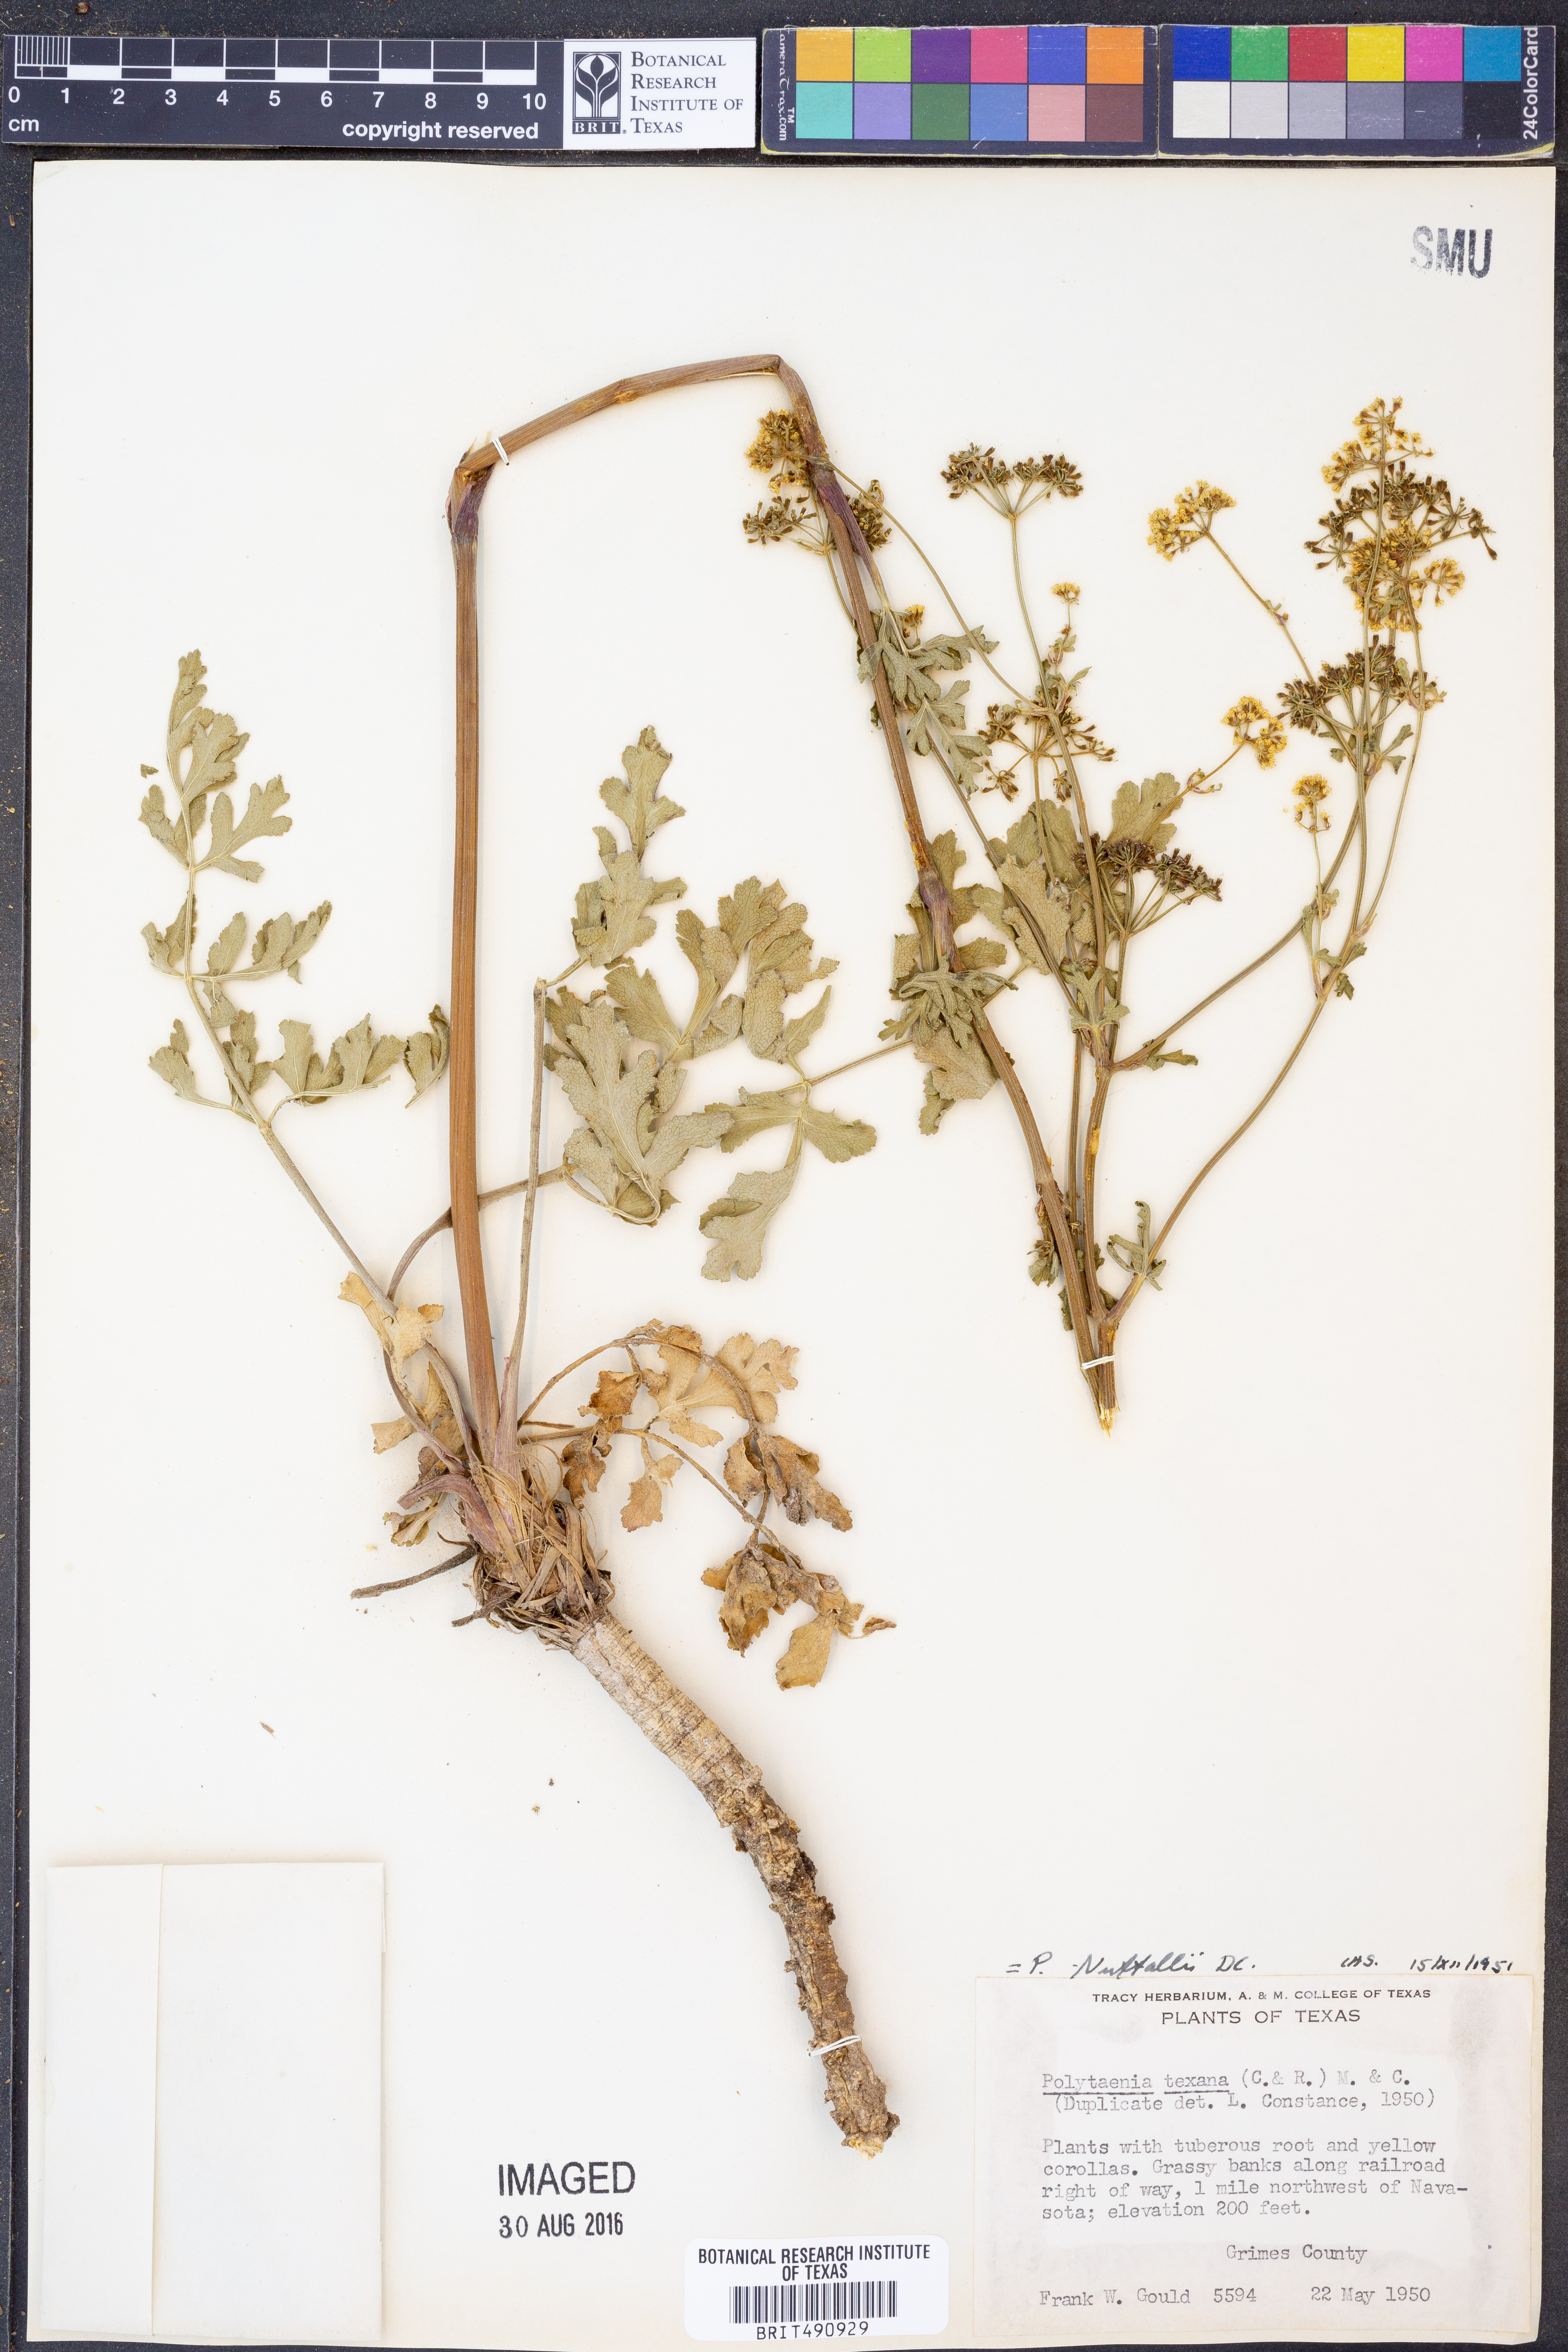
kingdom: Plantae
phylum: Tracheophyta
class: Magnoliopsida
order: Apiales
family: Apiaceae
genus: Polytaenia
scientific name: Polytaenia nuttallii
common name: Prairie-parsley
